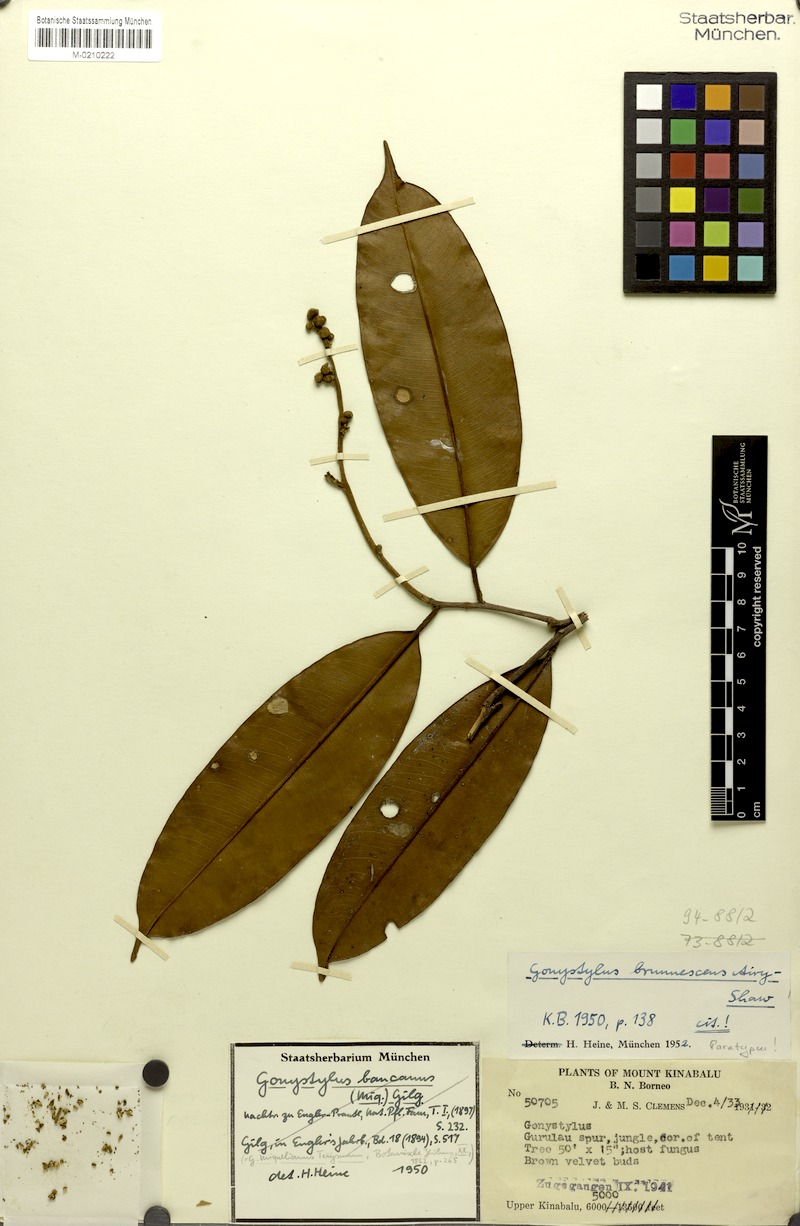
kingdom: Plantae
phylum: Tracheophyta
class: Magnoliopsida
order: Malvales
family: Thymelaeaceae
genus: Gonystylus
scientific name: Gonystylus brunnescens
